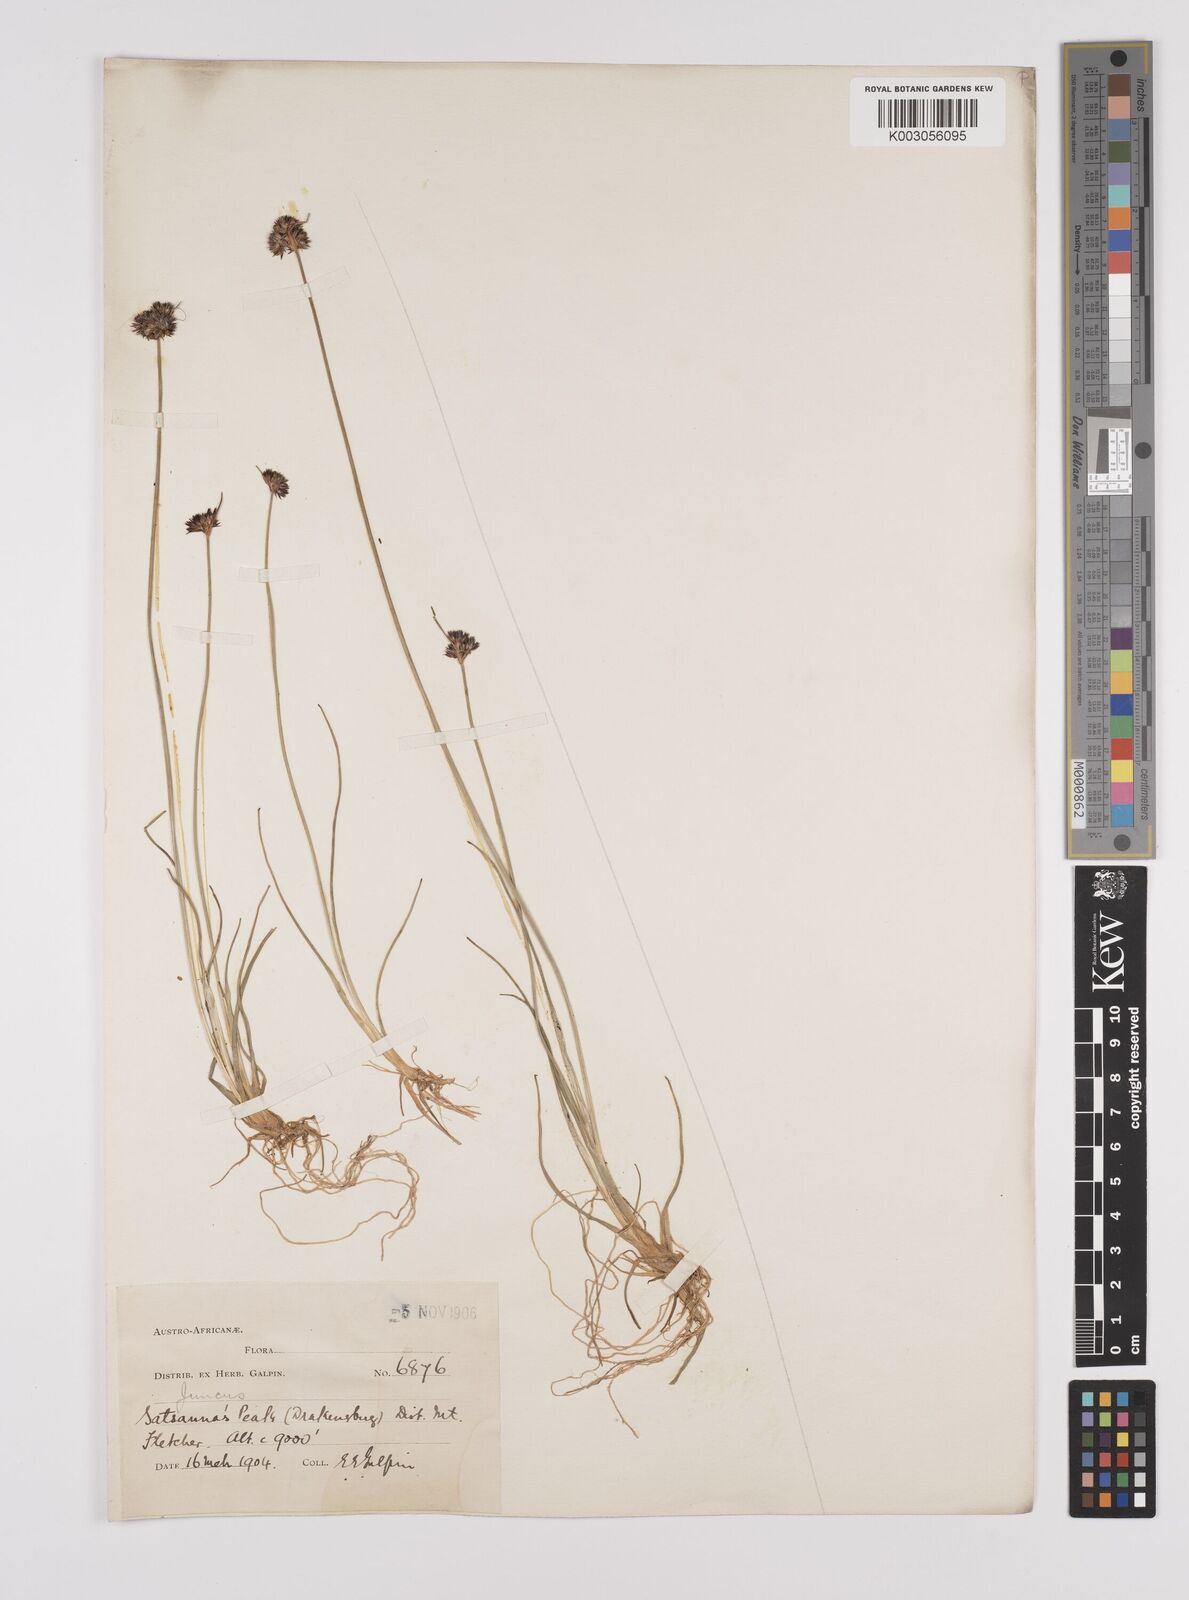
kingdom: Plantae
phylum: Tracheophyta
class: Liliopsida
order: Poales
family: Juncaceae
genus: Juncus
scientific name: Juncus dregeanus
